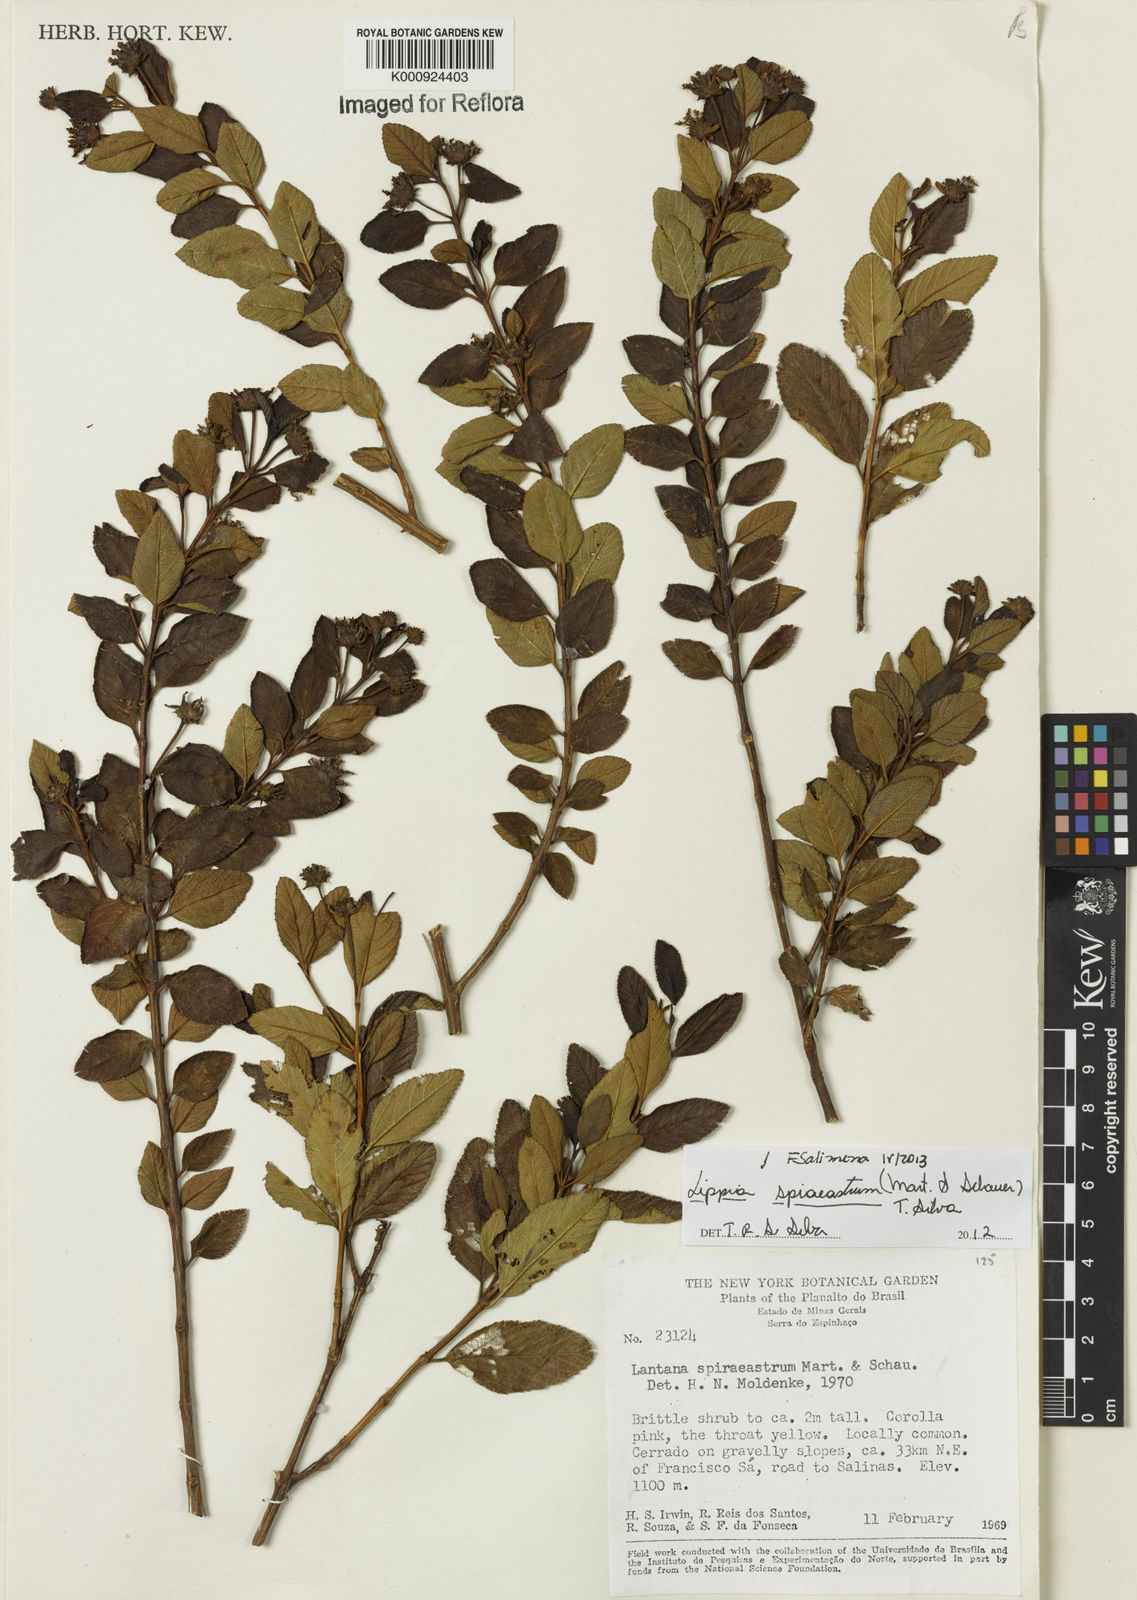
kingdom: Plantae
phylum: Tracheophyta
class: Magnoliopsida
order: Lamiales
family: Verbenaceae
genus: Lippia
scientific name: Lippia spiraeastrum
